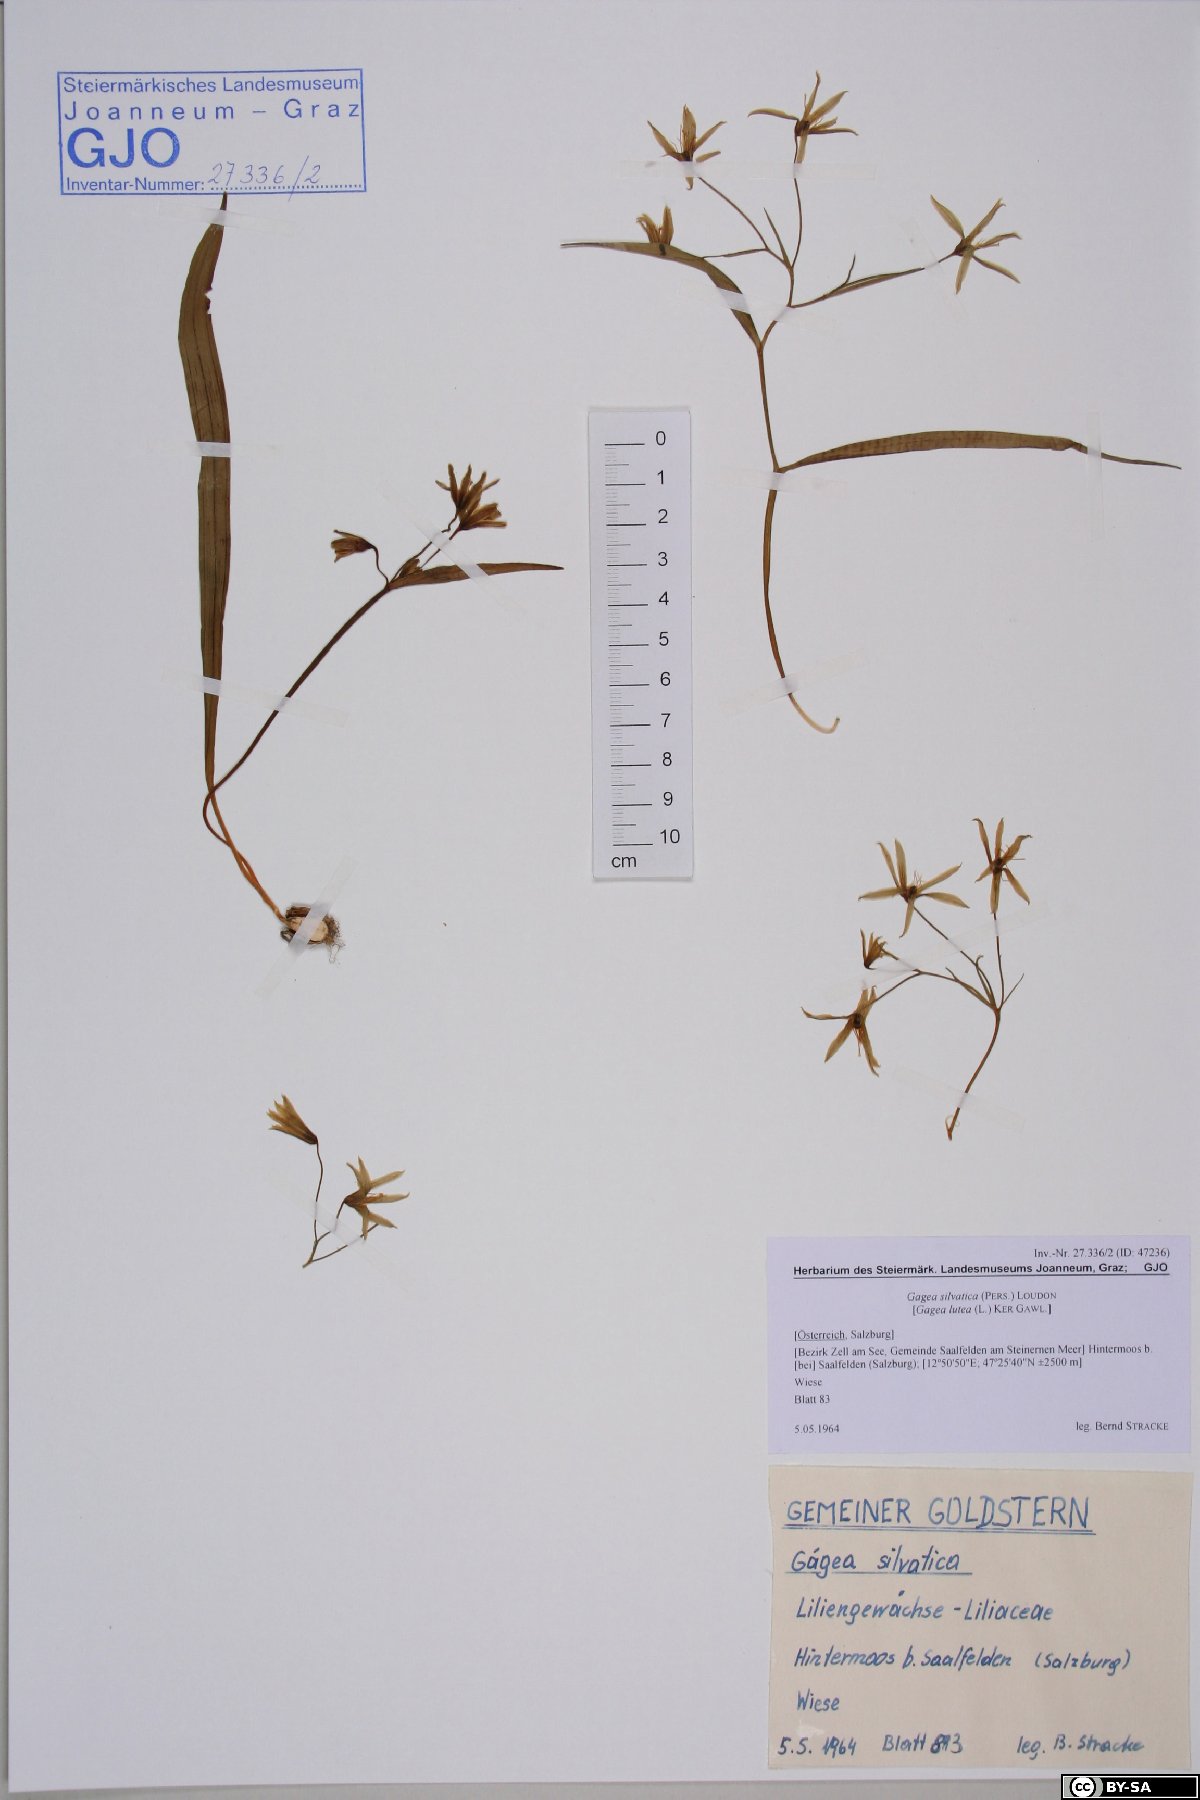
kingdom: Plantae
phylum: Tracheophyta
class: Liliopsida
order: Liliales
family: Liliaceae
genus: Gagea
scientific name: Gagea lutea
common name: Yellow star-of-bethlehem
